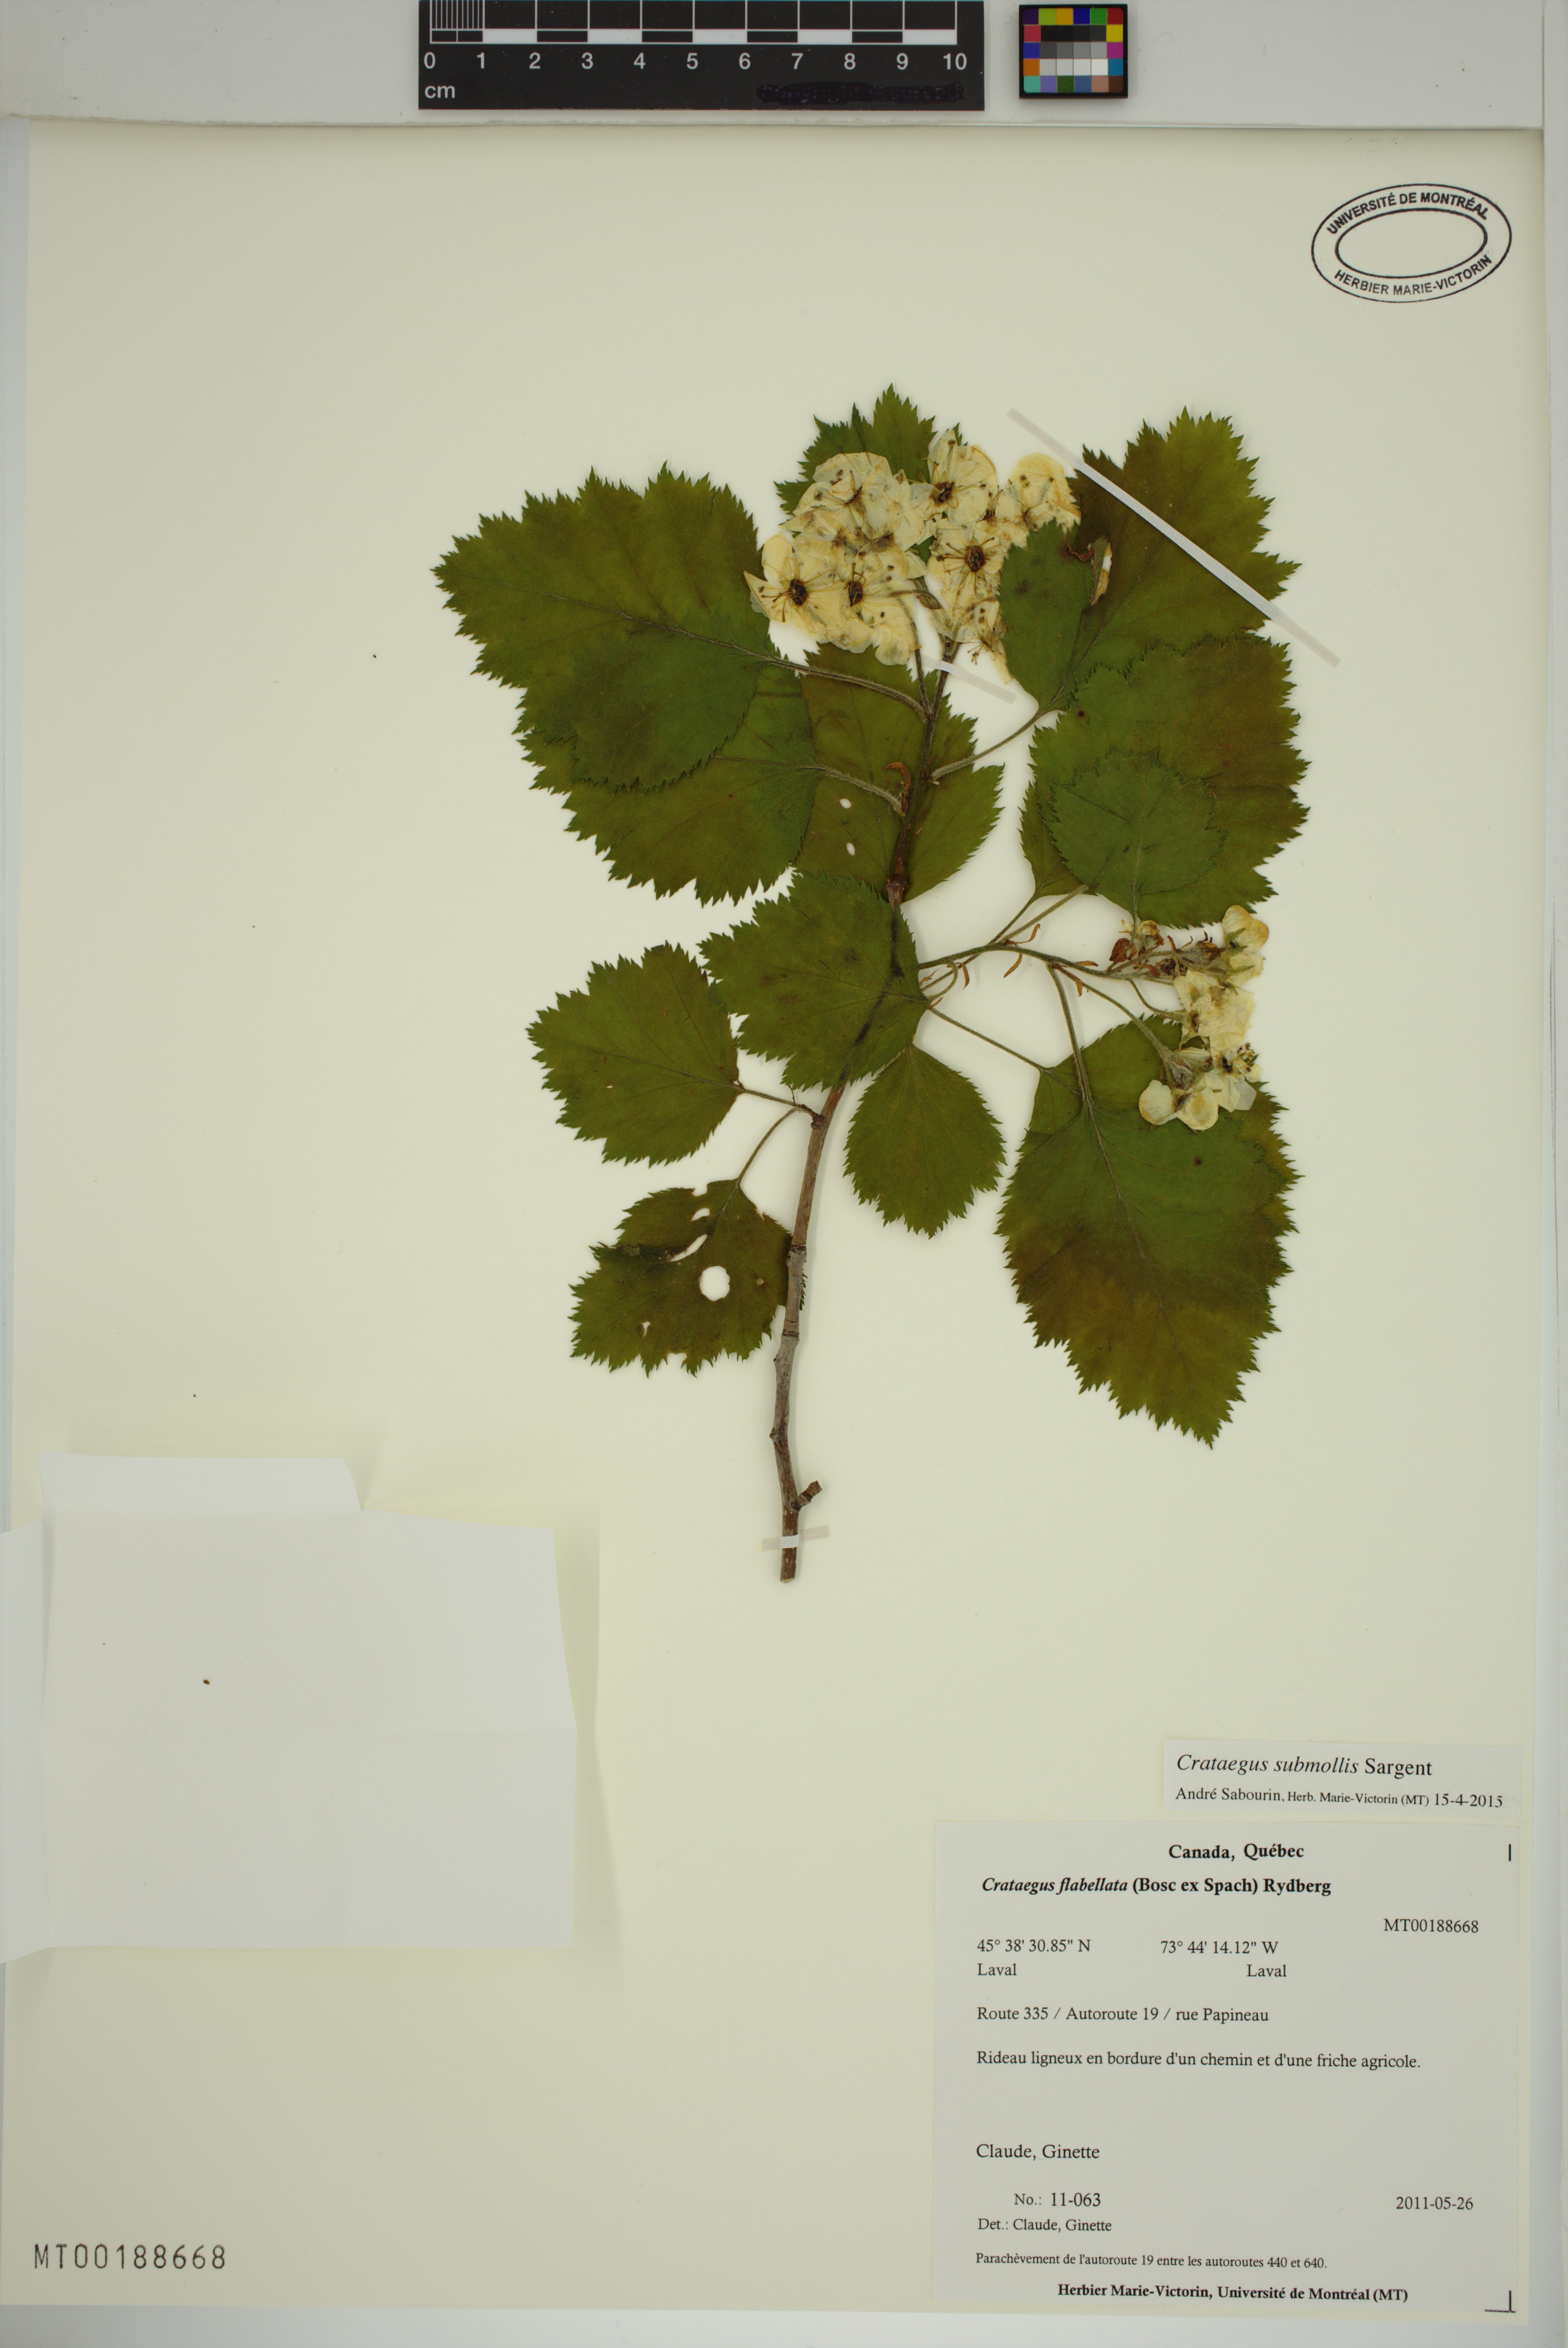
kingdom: Plantae
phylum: Tracheophyta
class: Magnoliopsida
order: Rosales
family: Rosaceae
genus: Crataegus
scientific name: Crataegus submollis
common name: Hairy cockspurthorn
